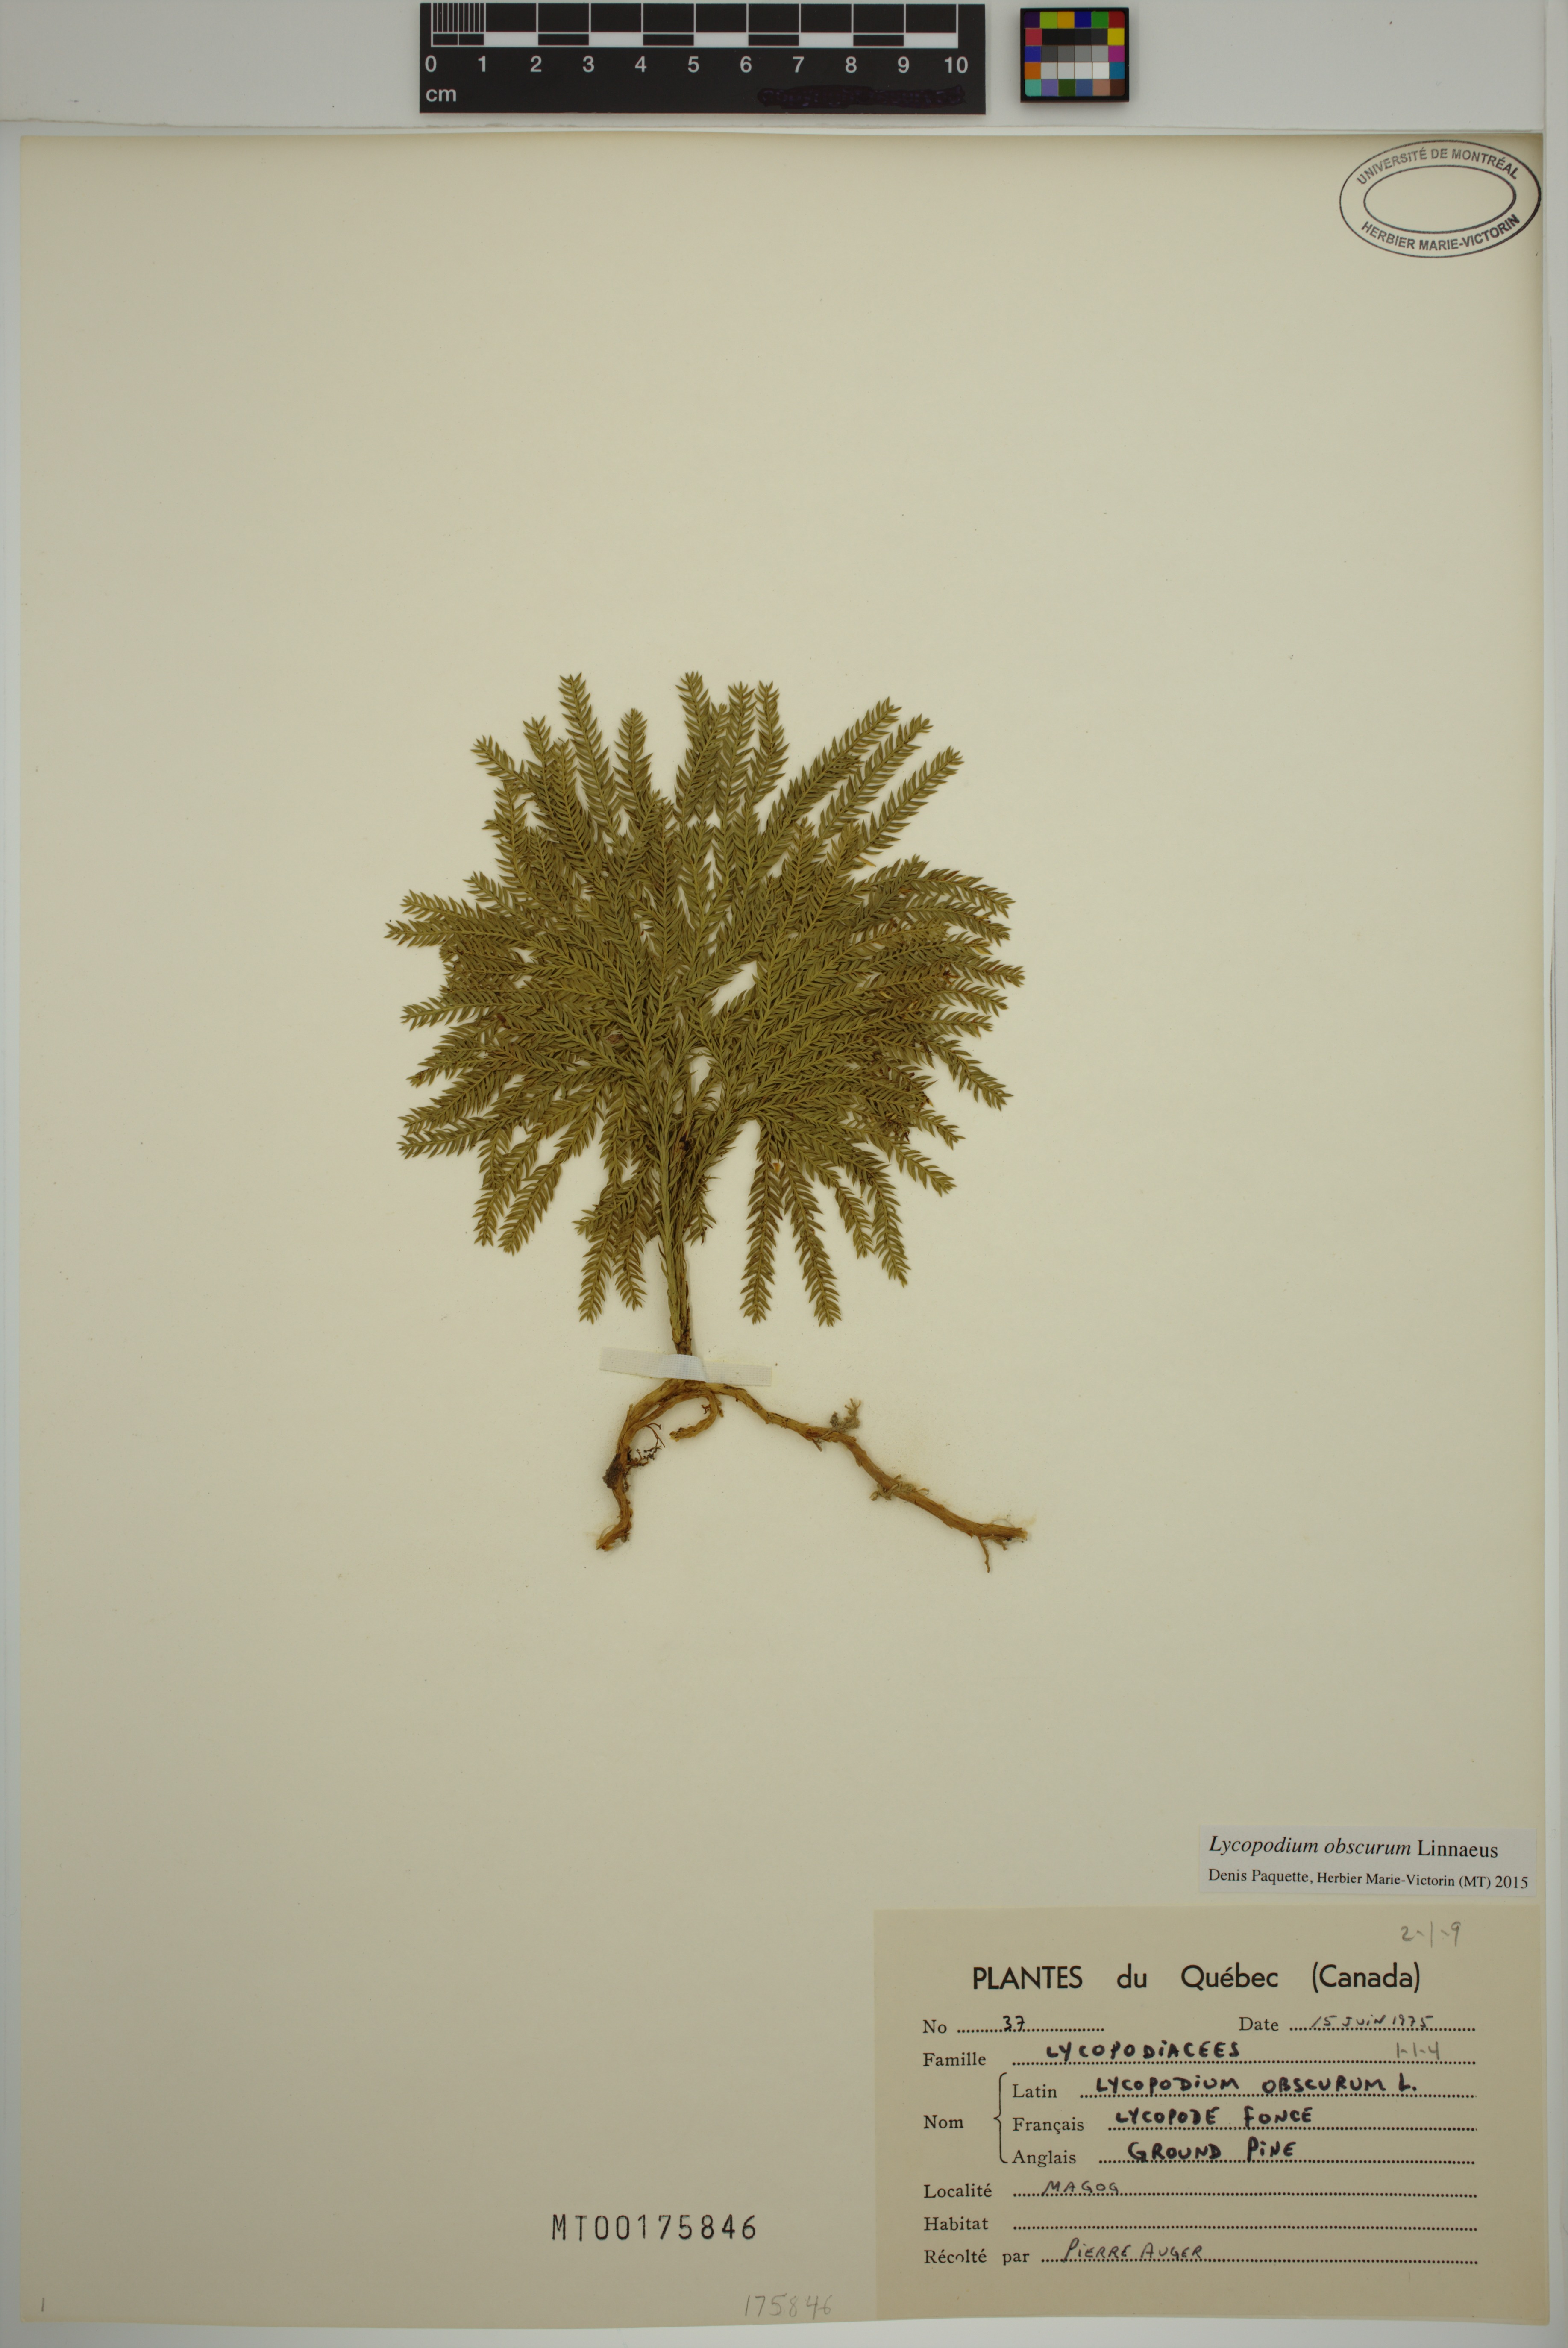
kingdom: Plantae
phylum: Tracheophyta
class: Lycopodiopsida
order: Lycopodiales
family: Lycopodiaceae
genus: Dendrolycopodium
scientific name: Dendrolycopodium obscurum
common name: Common ground-pine
